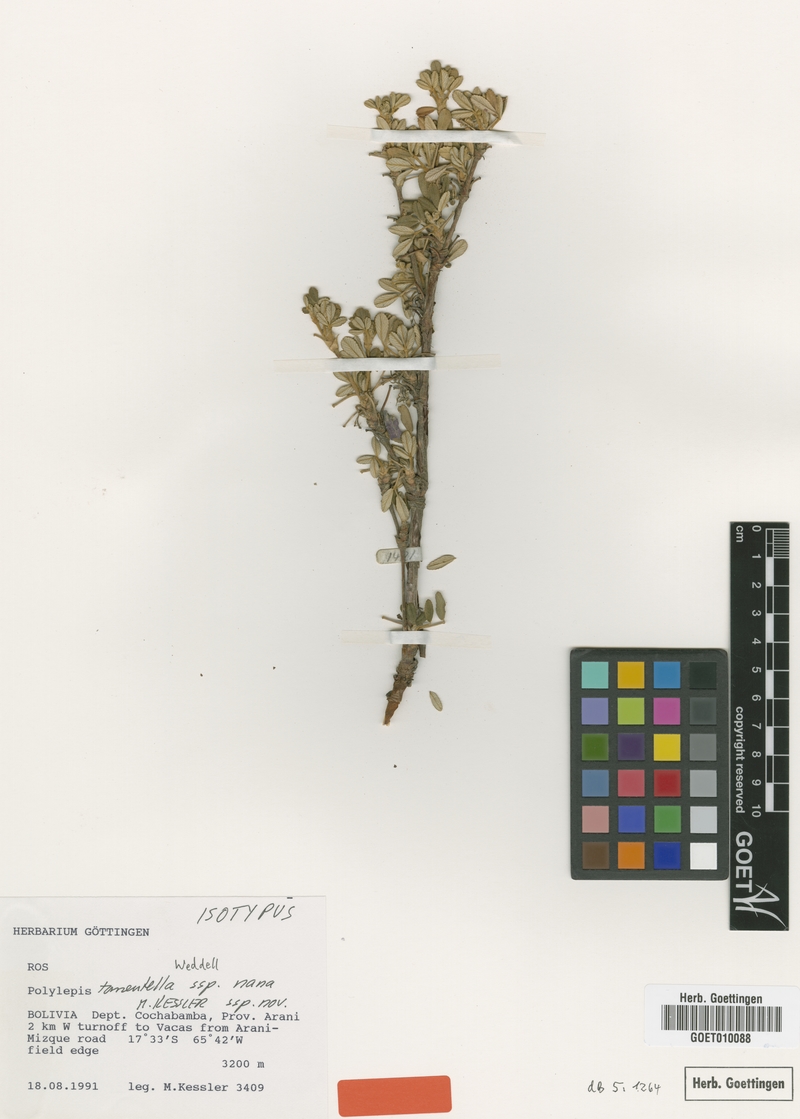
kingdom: Plantae
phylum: Tracheophyta
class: Magnoliopsida
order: Rosales
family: Rosaceae
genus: Polylepis
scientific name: Polylepis nana
